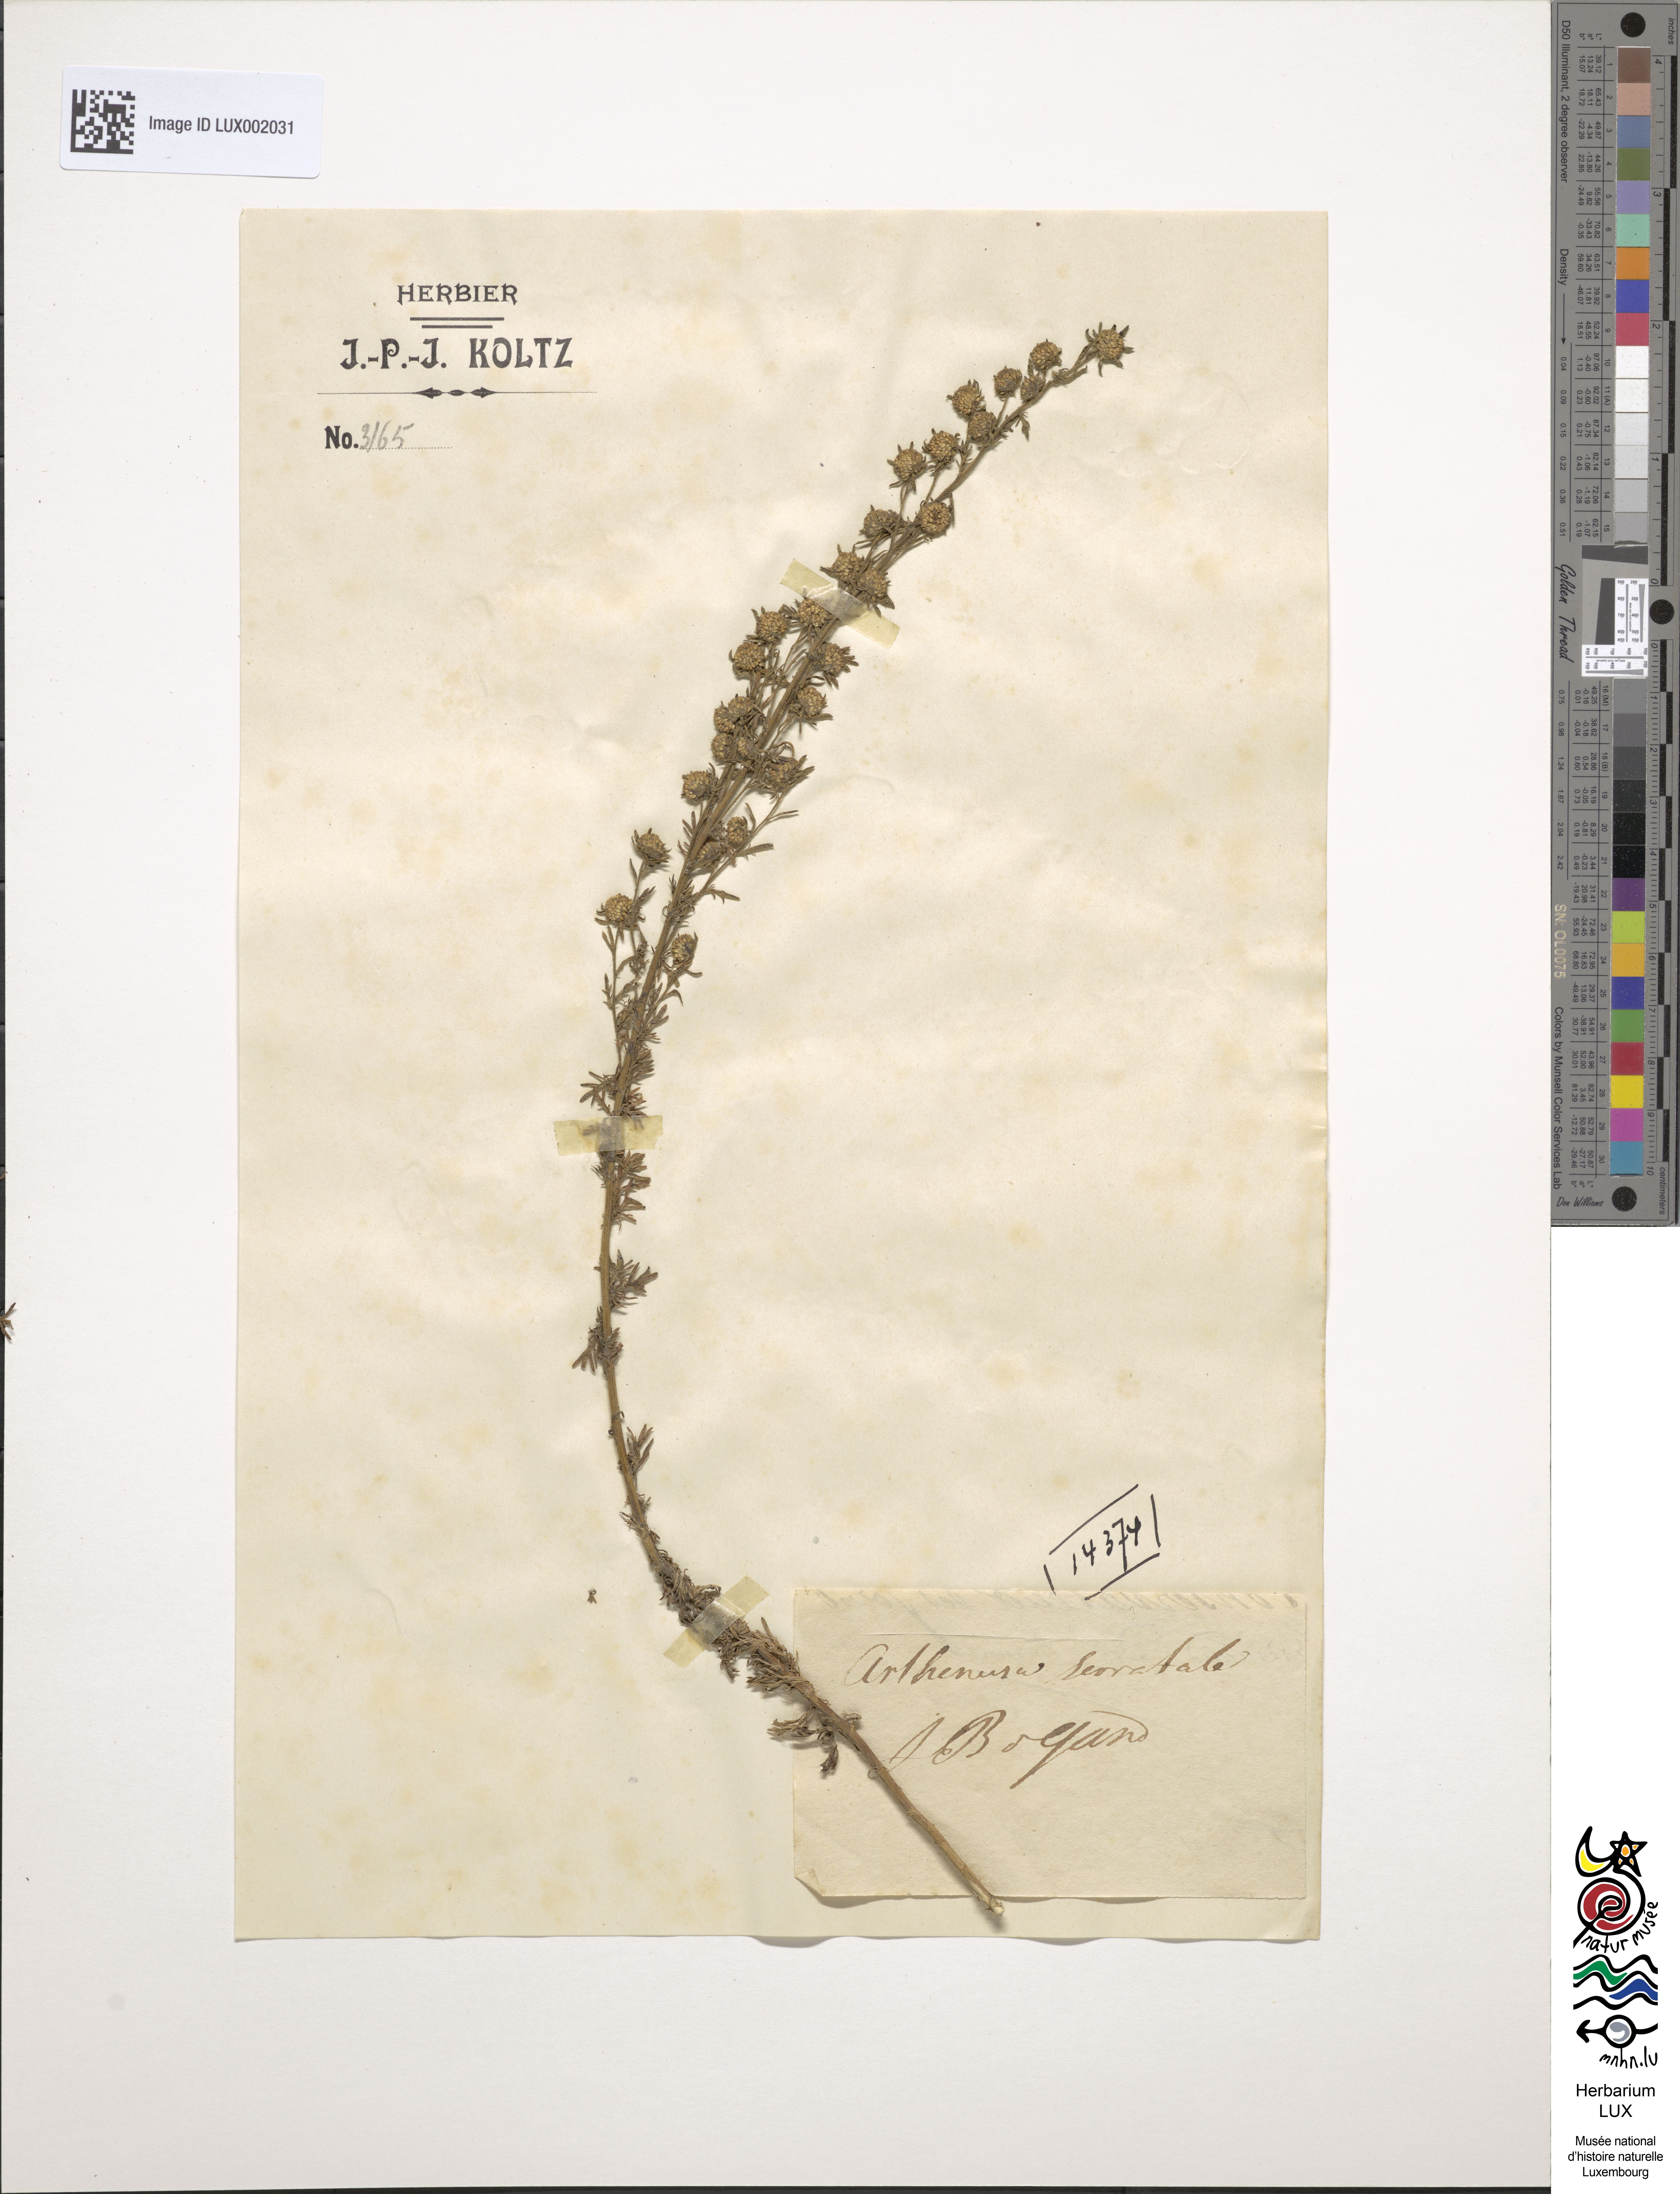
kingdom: Plantae
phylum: Tracheophyta
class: Magnoliopsida
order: Asterales
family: Asteraceae
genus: Artemisia
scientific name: Artemisia serrata
